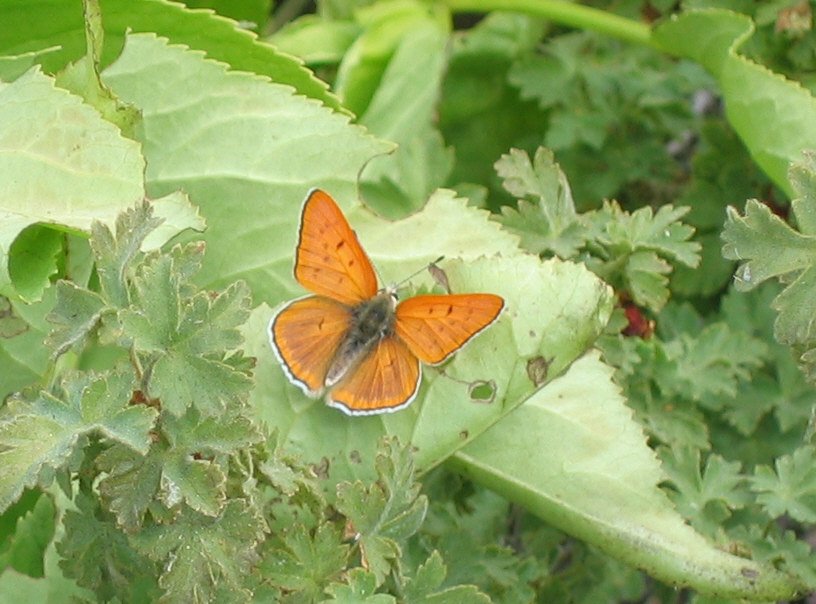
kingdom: Animalia
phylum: Arthropoda
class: Insecta
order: Lepidoptera
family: Sesiidae
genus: Sesia
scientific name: Sesia Lycaena rubidus
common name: Ruddy Copper
